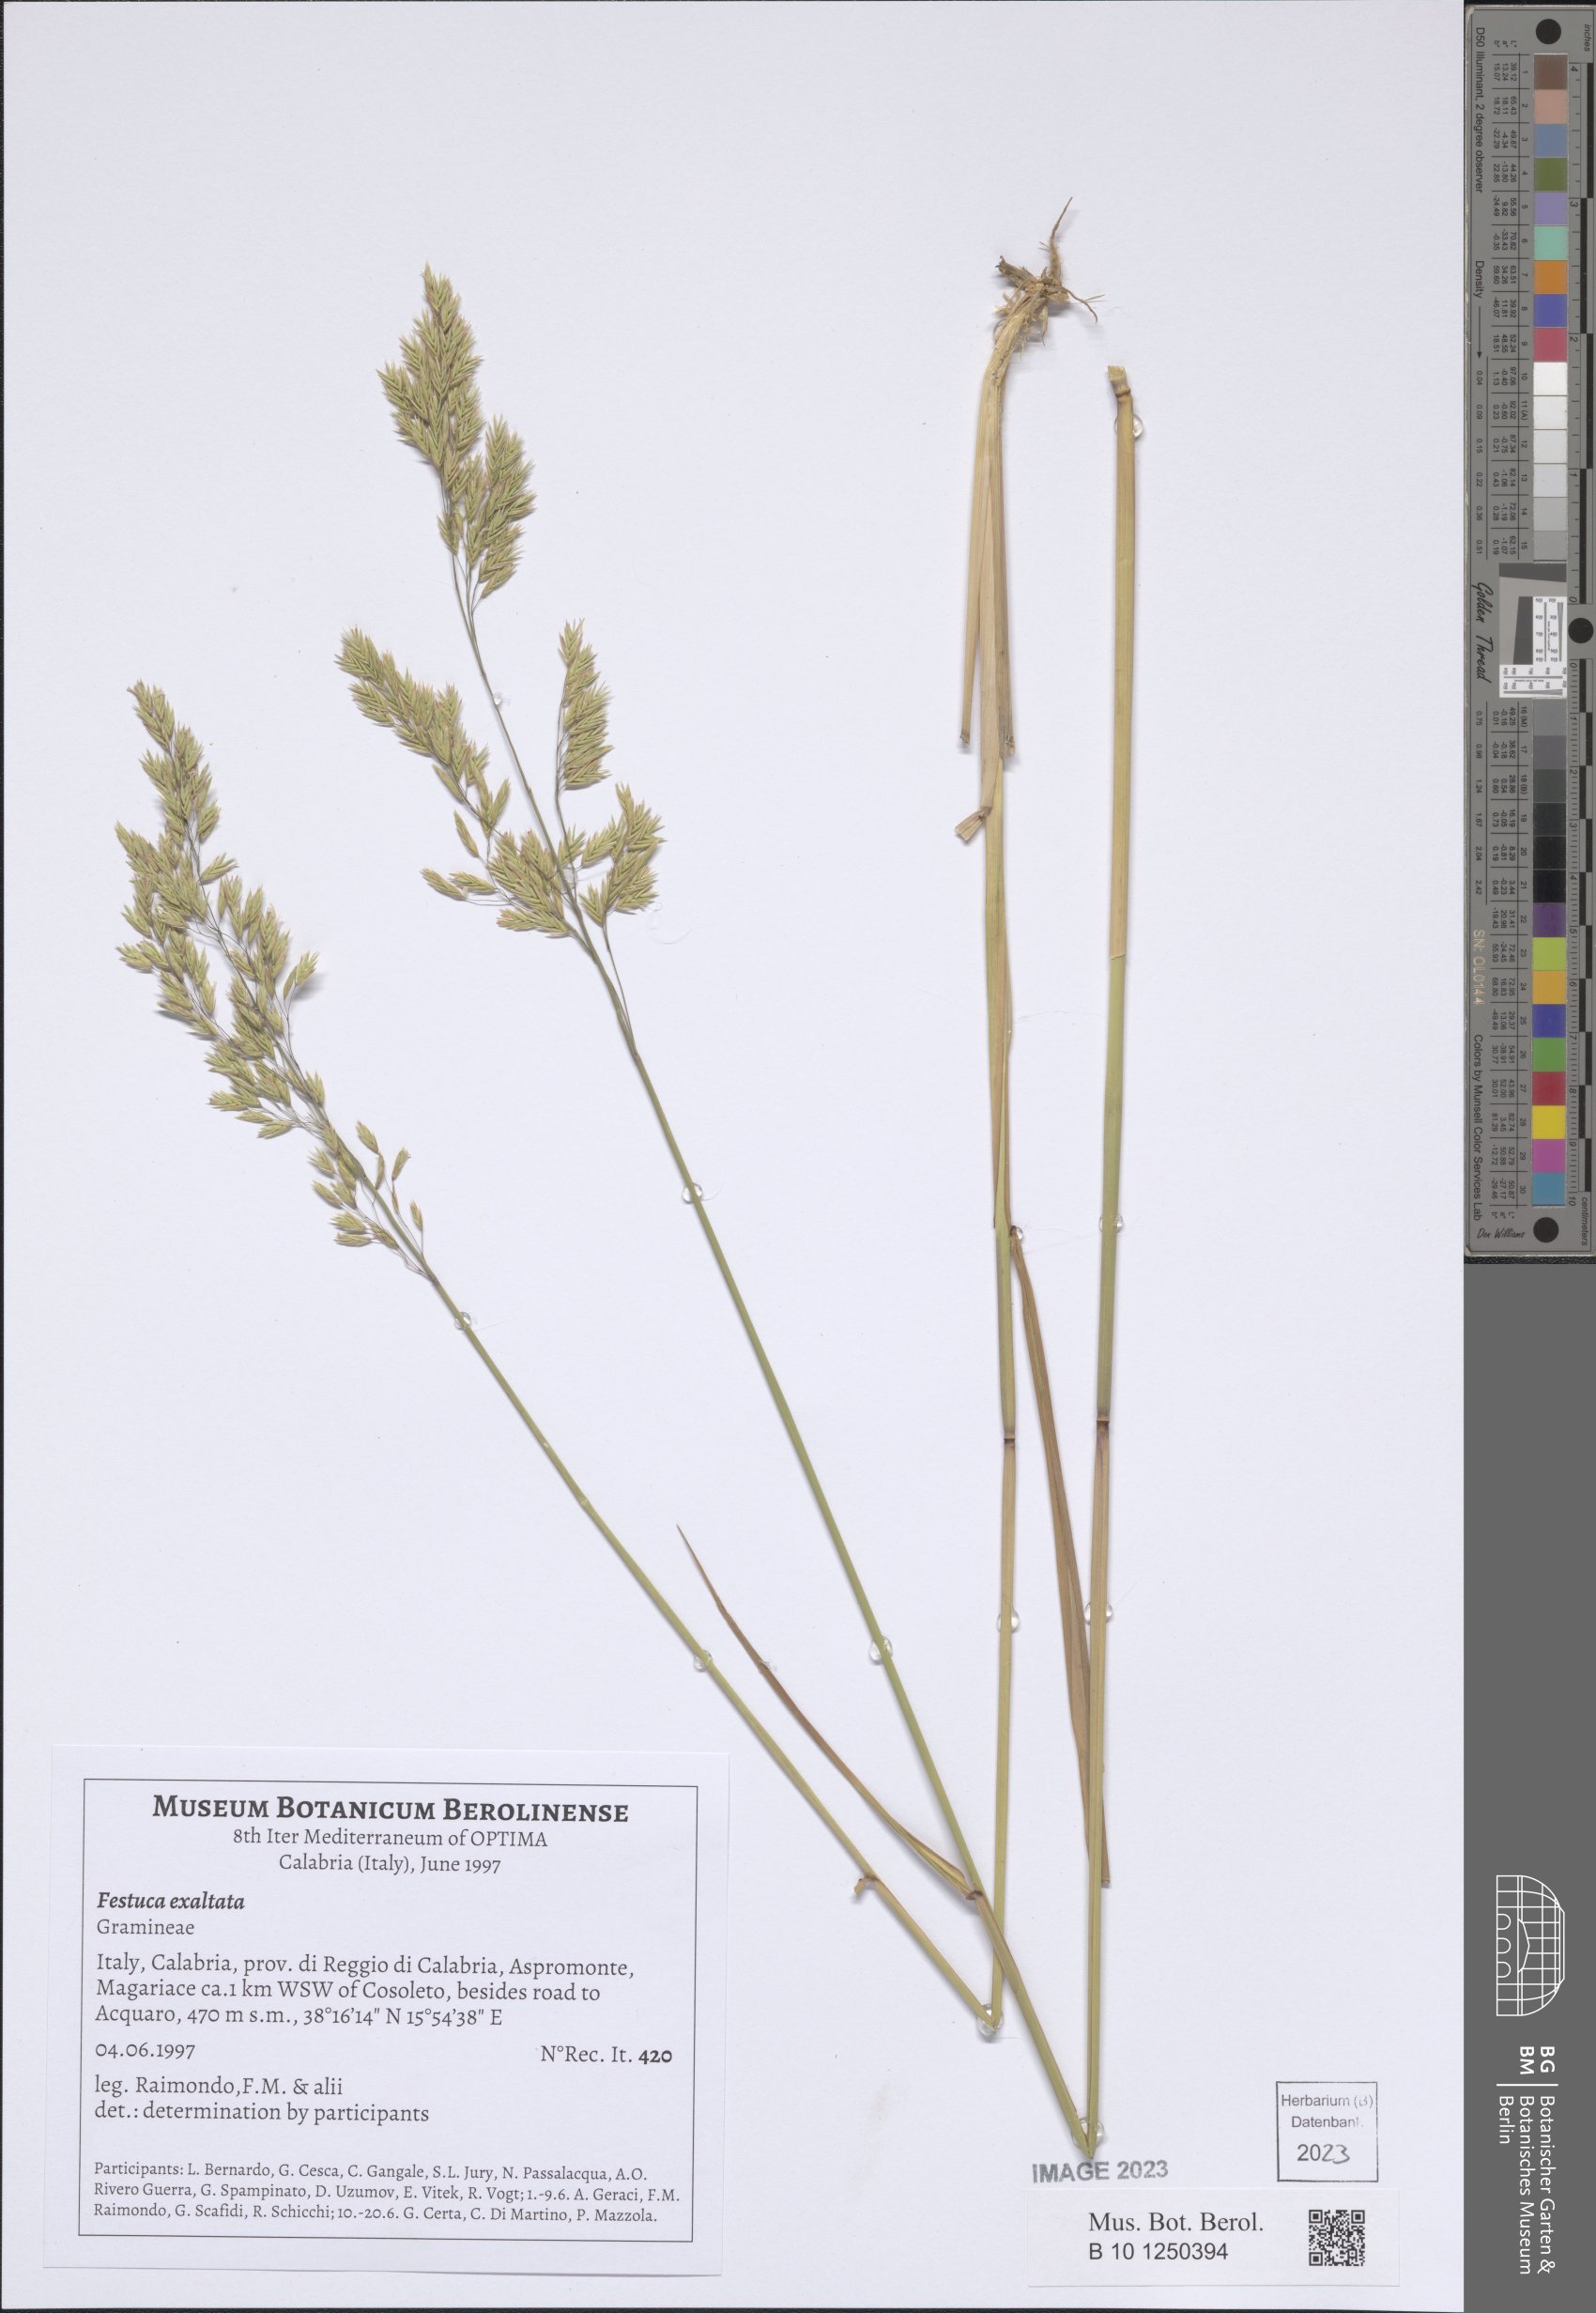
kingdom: Plantae
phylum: Tracheophyta
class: Liliopsida
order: Poales
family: Poaceae
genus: Festuca
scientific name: Festuca drymeja
